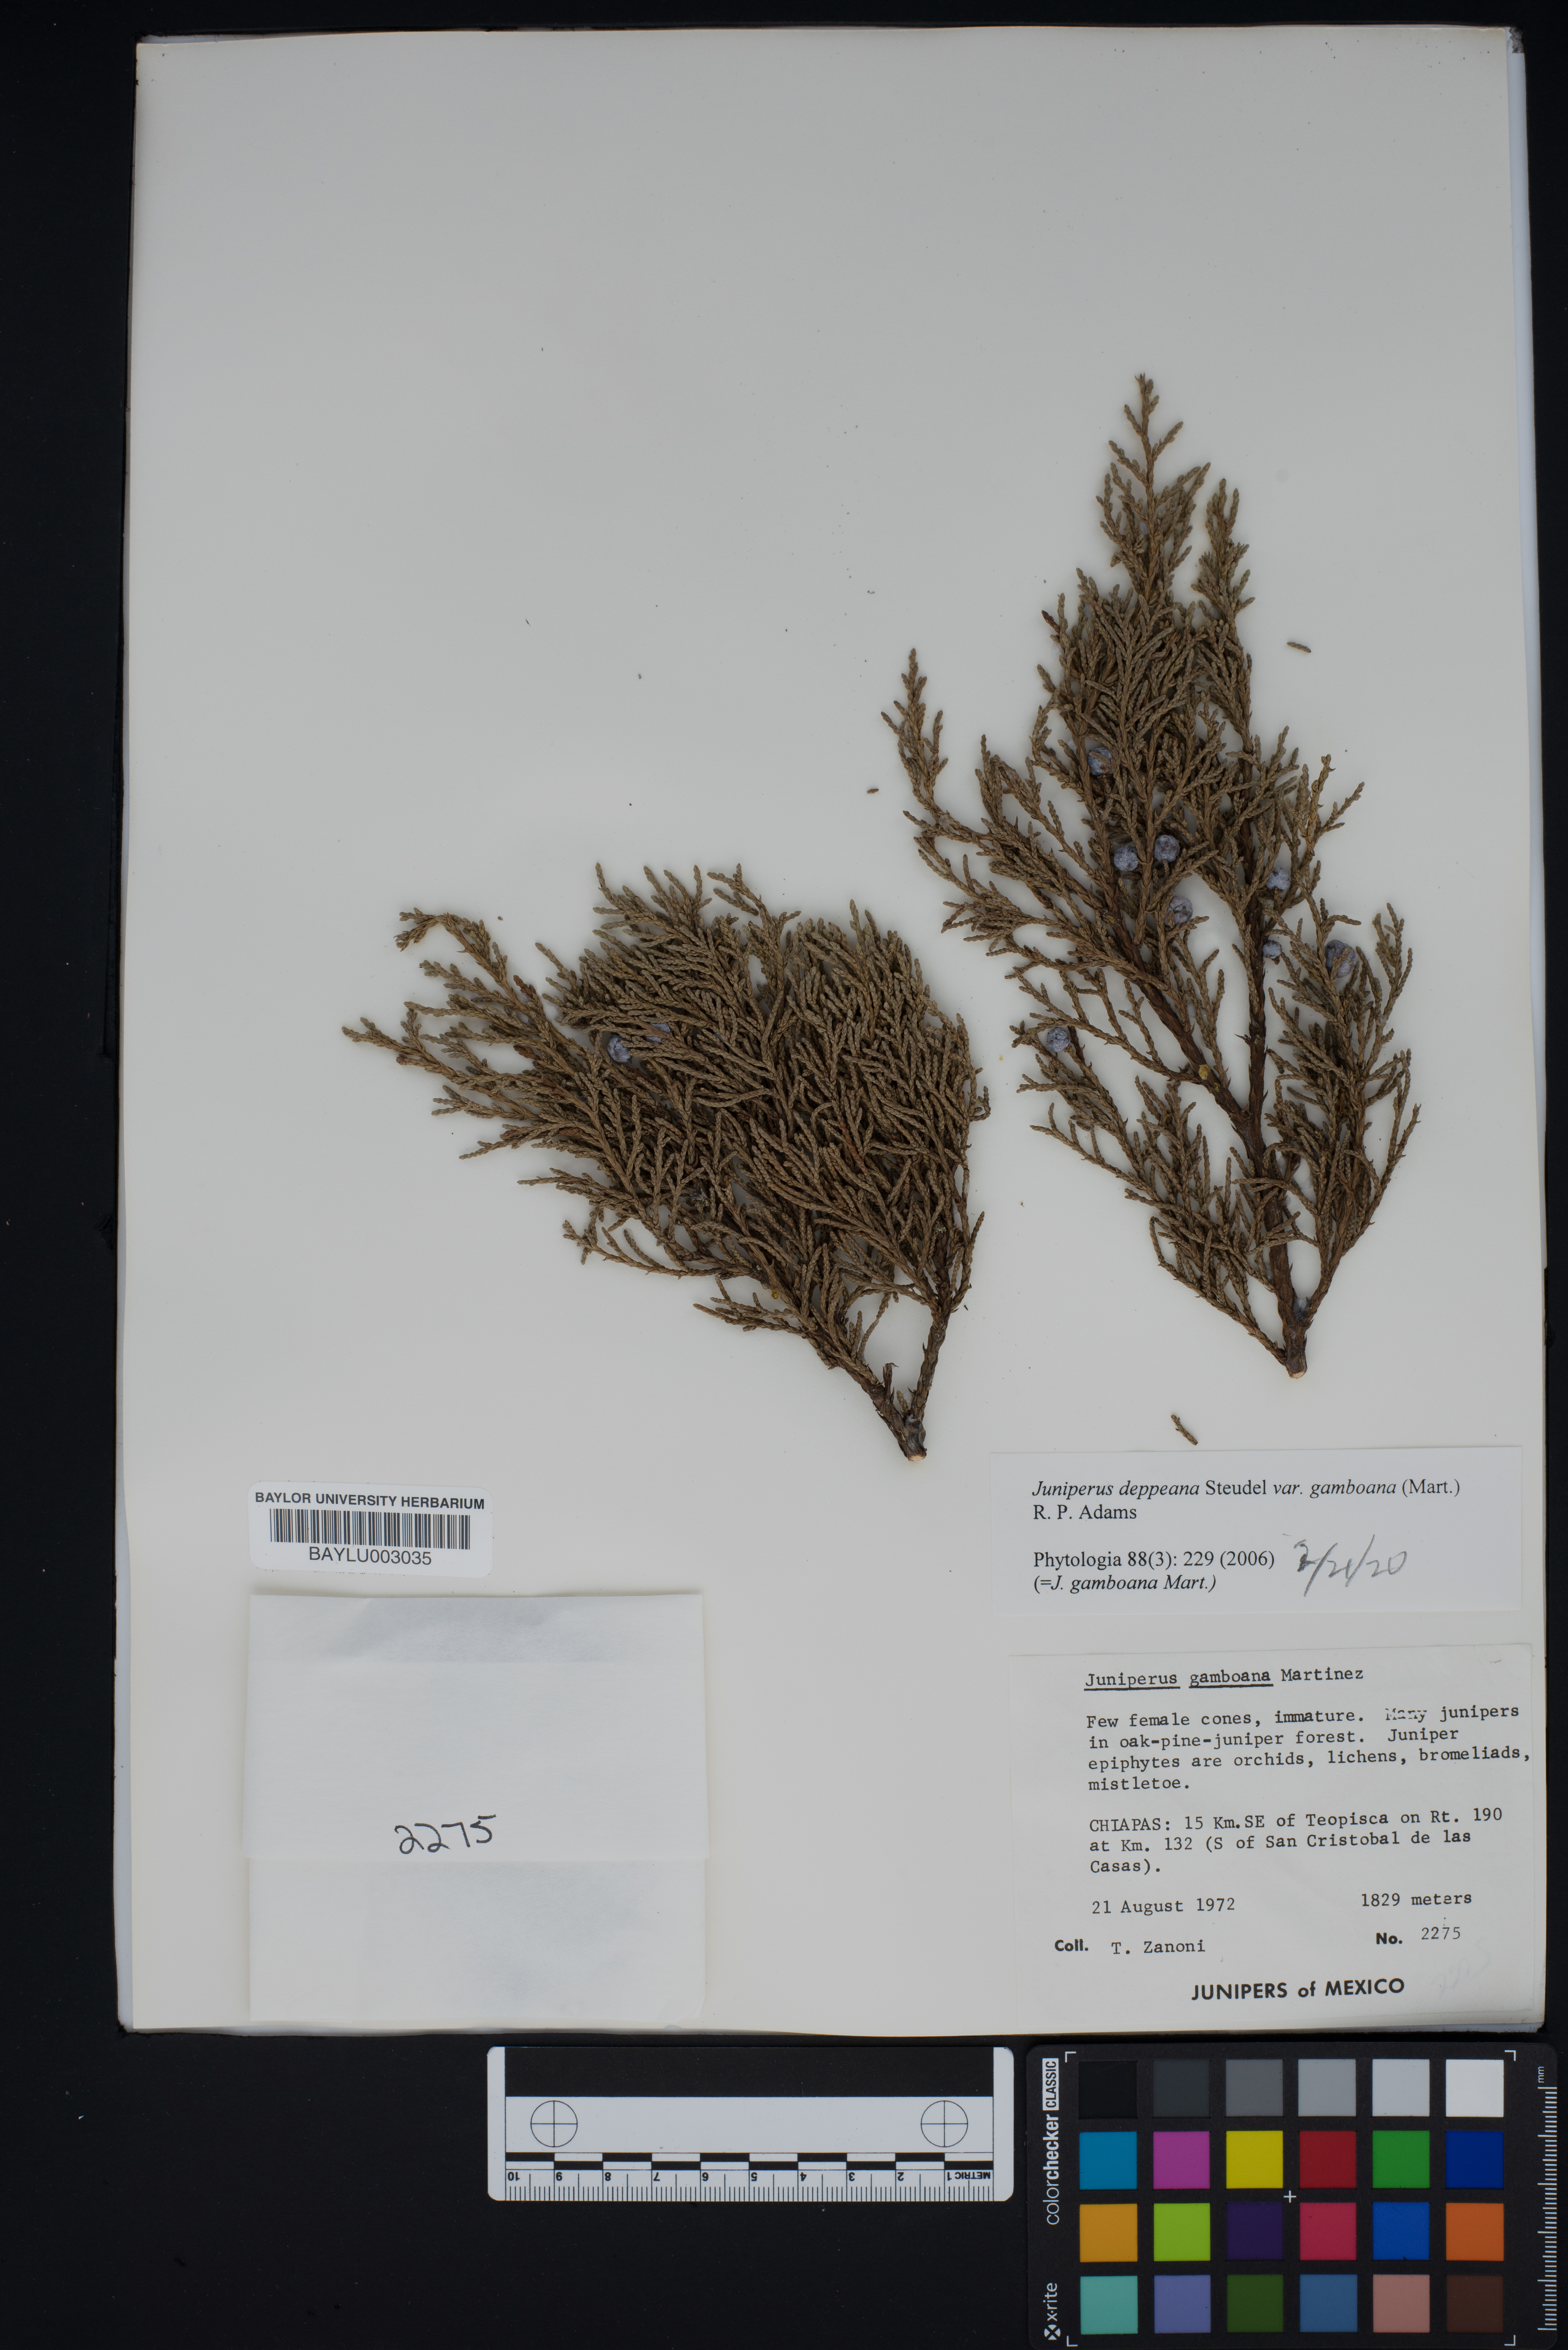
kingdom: Plantae
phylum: Tracheophyta
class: Pinopsida
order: Pinales
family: Cupressaceae
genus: Juniperus
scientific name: Juniperus gamboana
